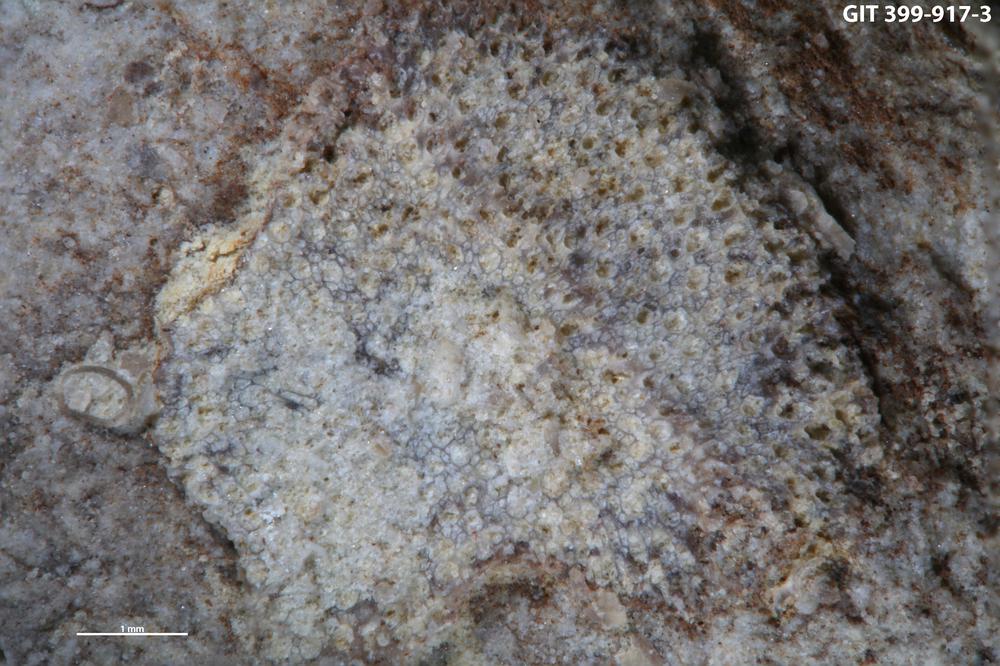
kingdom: Animalia
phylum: Bryozoa
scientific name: Bryozoa
